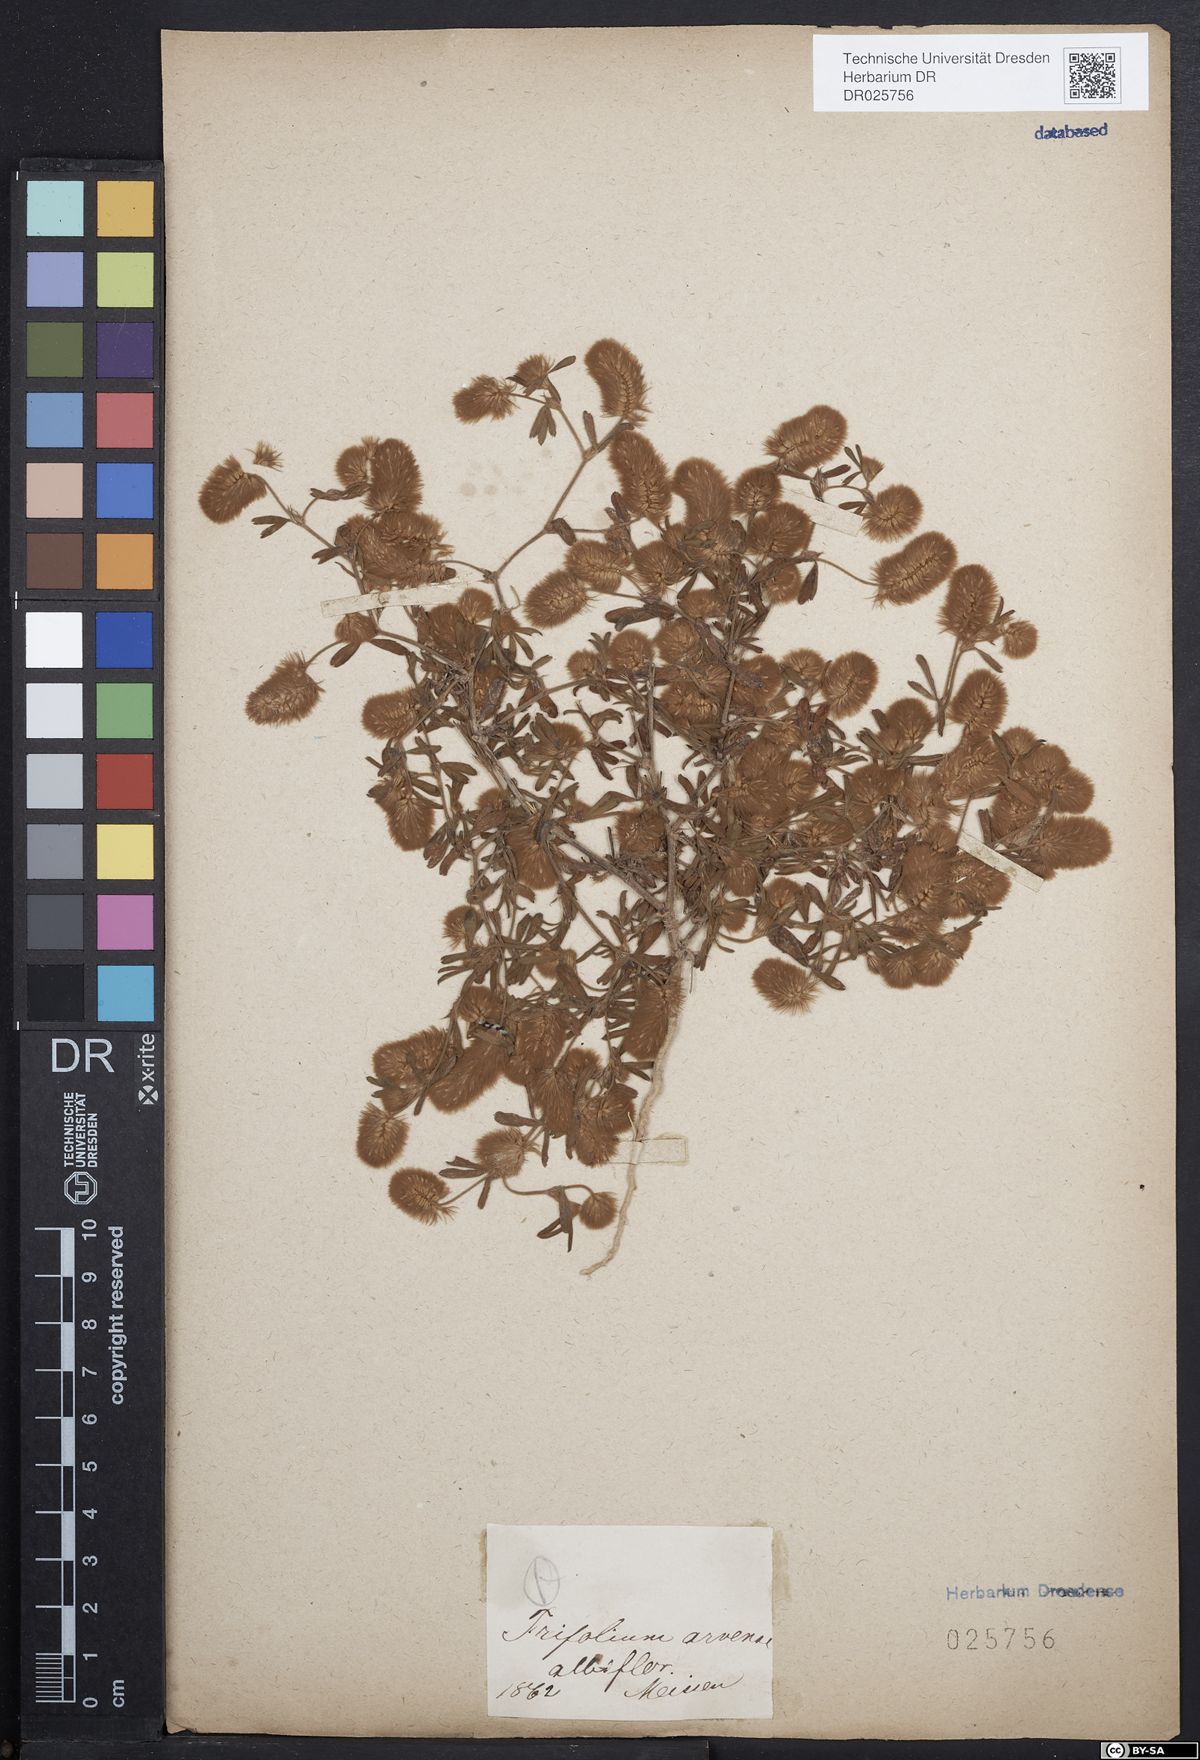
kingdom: Plantae
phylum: Tracheophyta
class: Magnoliopsida
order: Fabales
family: Fabaceae
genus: Trifolium
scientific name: Trifolium arvense
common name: Hare's-foot clover
